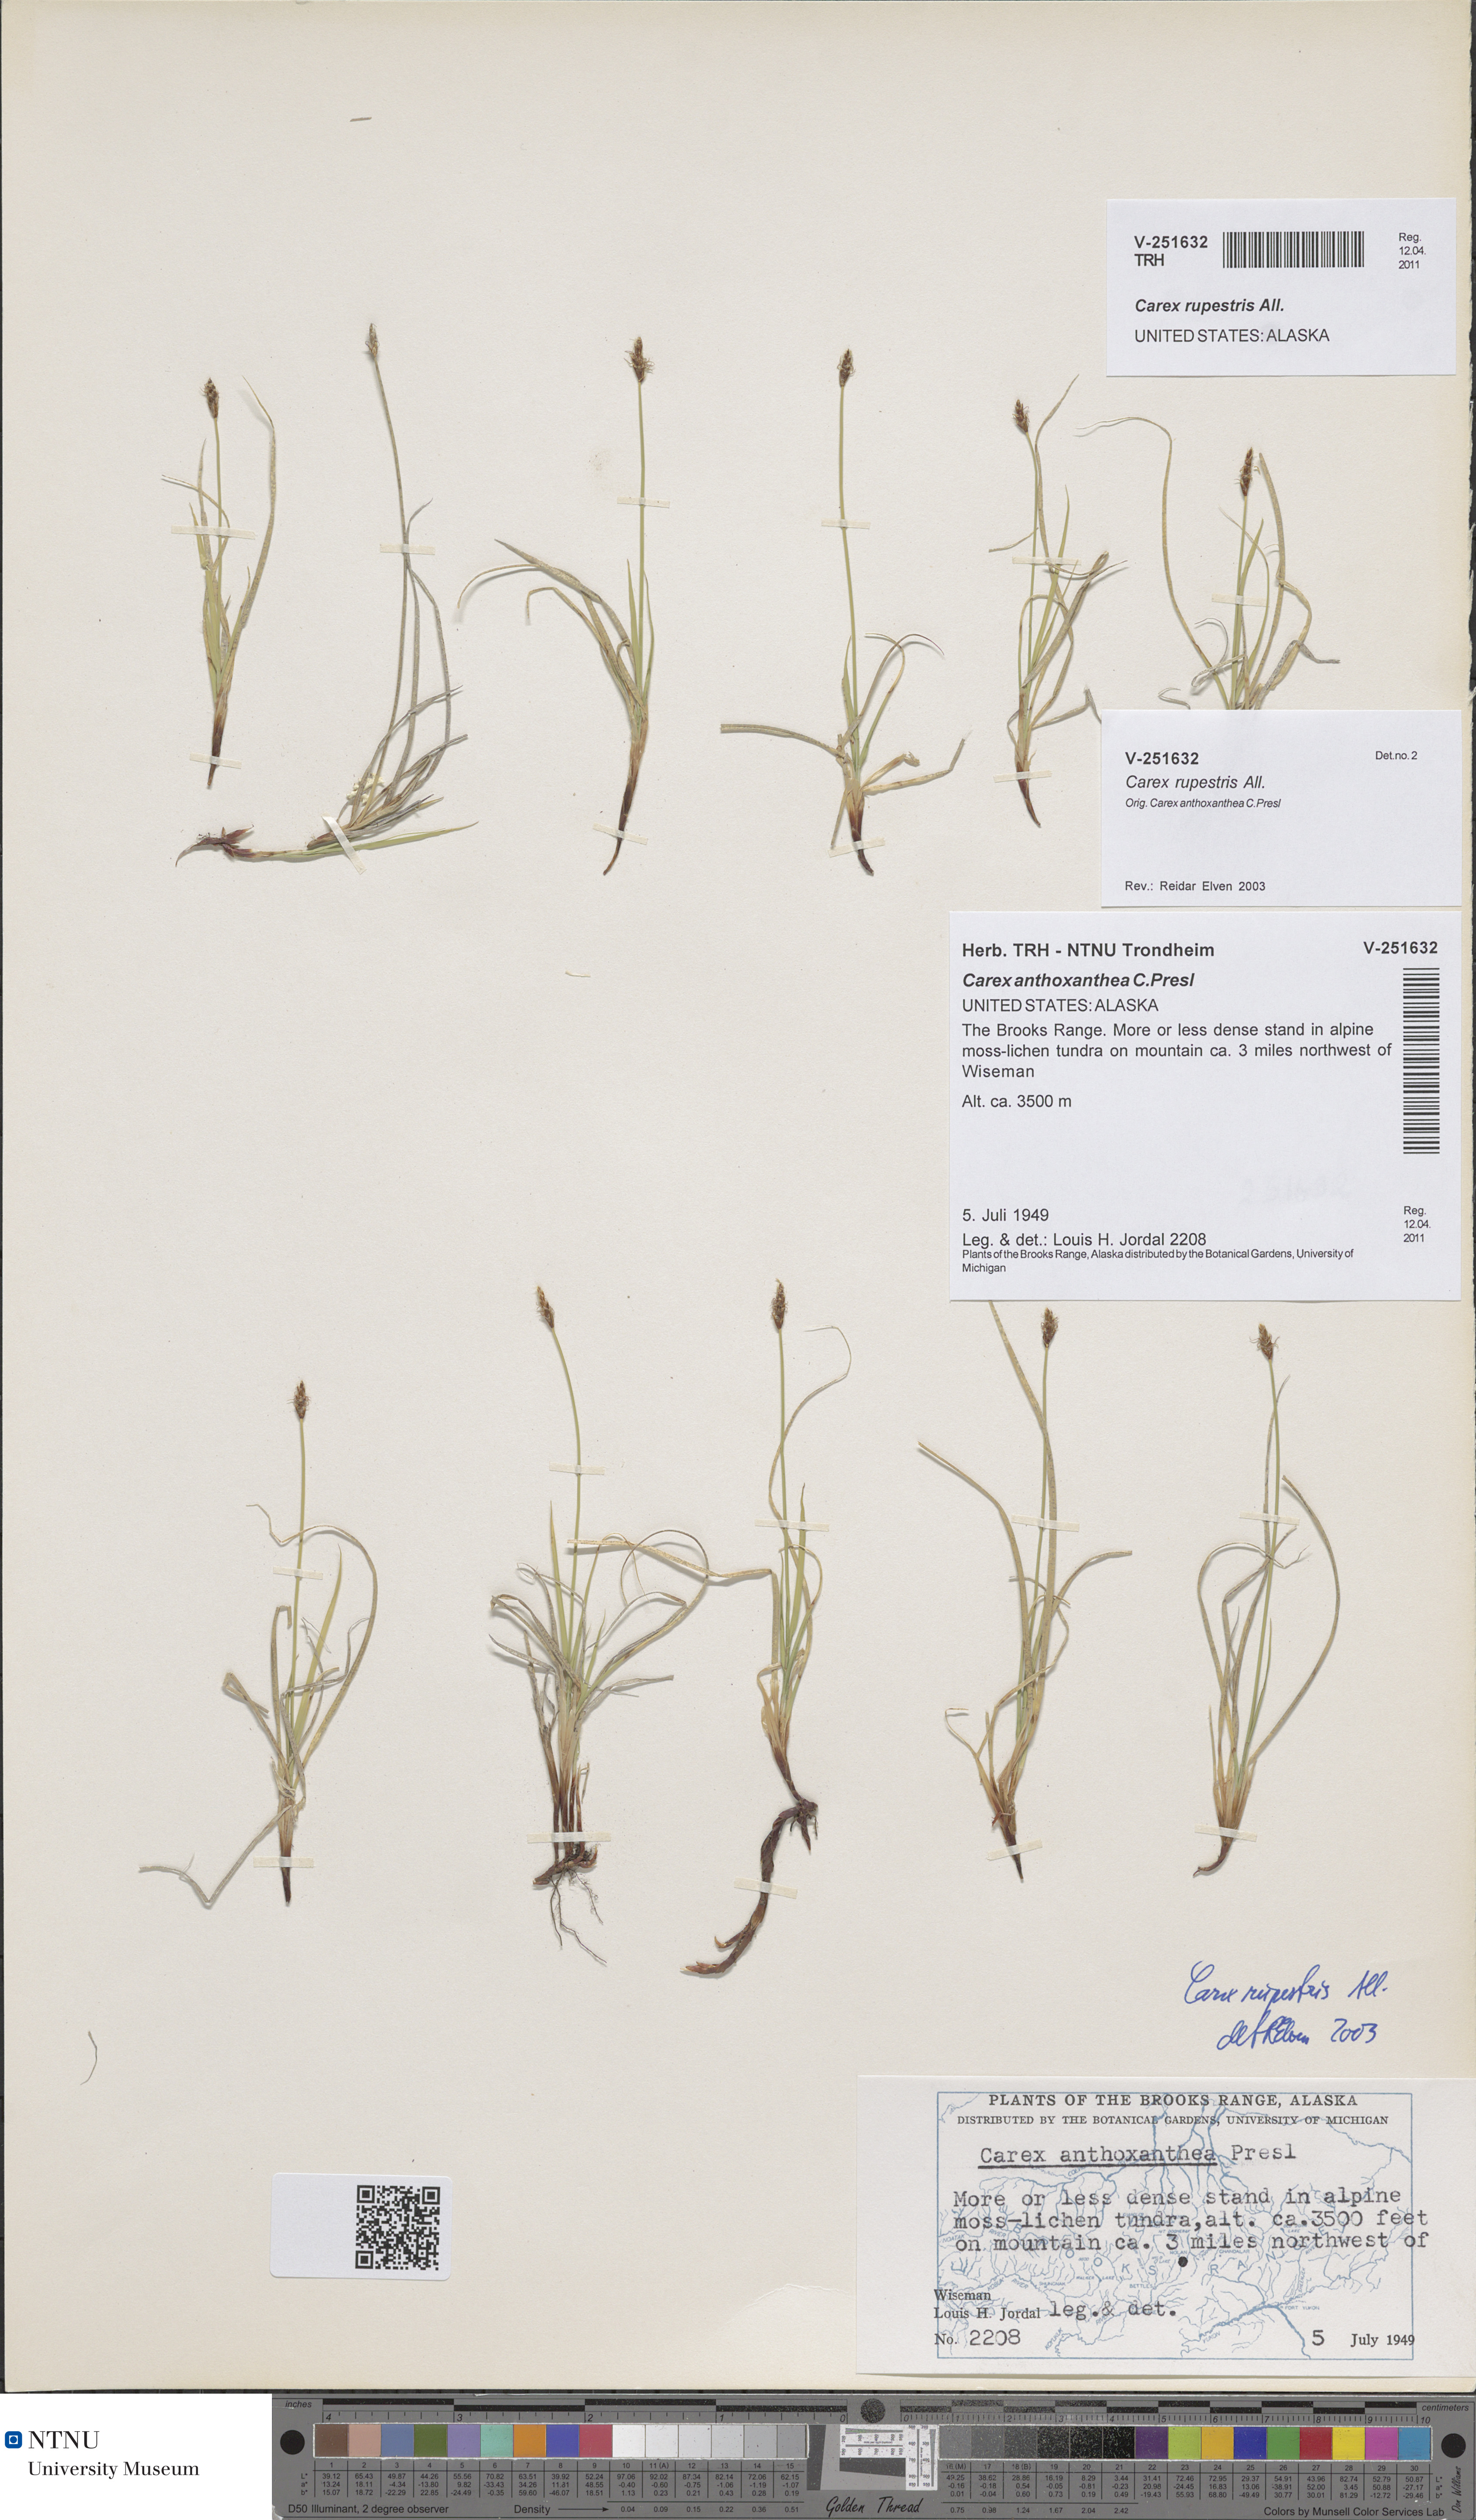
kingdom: Plantae
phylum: Tracheophyta
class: Liliopsida
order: Poales
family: Cyperaceae
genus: Carex
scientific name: Carex rupestris
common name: Rock sedge
